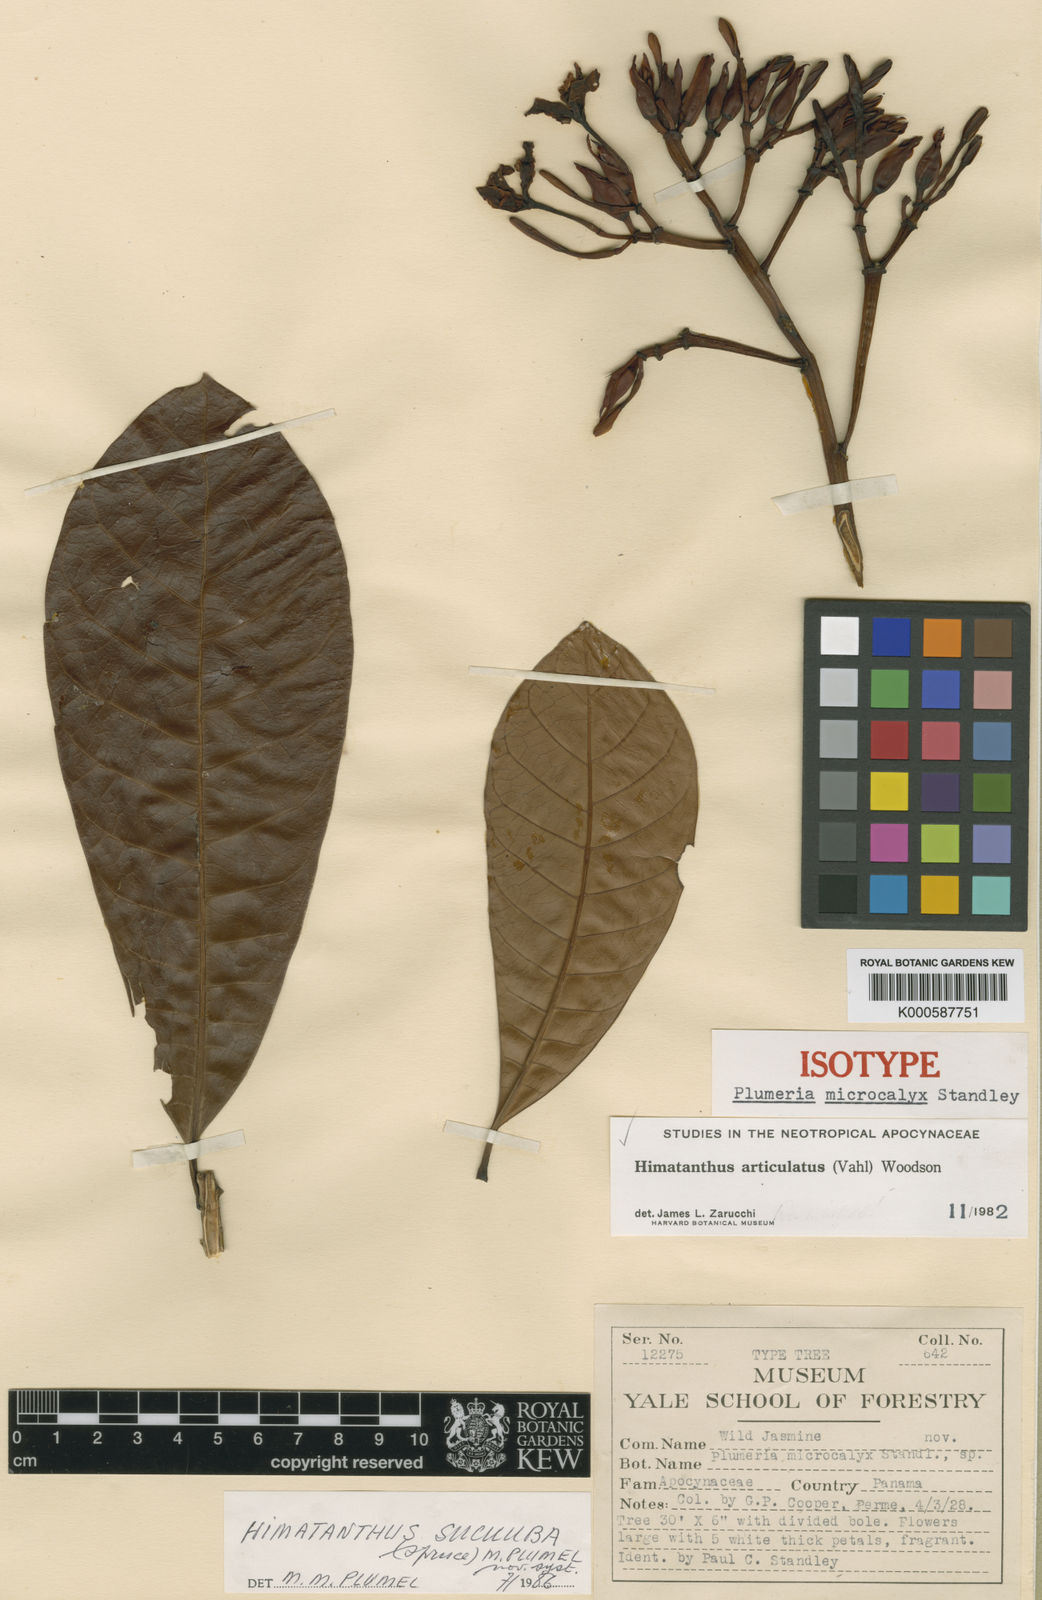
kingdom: Plantae
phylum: Tracheophyta
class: Magnoliopsida
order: Gentianales
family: Apocynaceae
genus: Himatanthus
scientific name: Himatanthus articulatus
